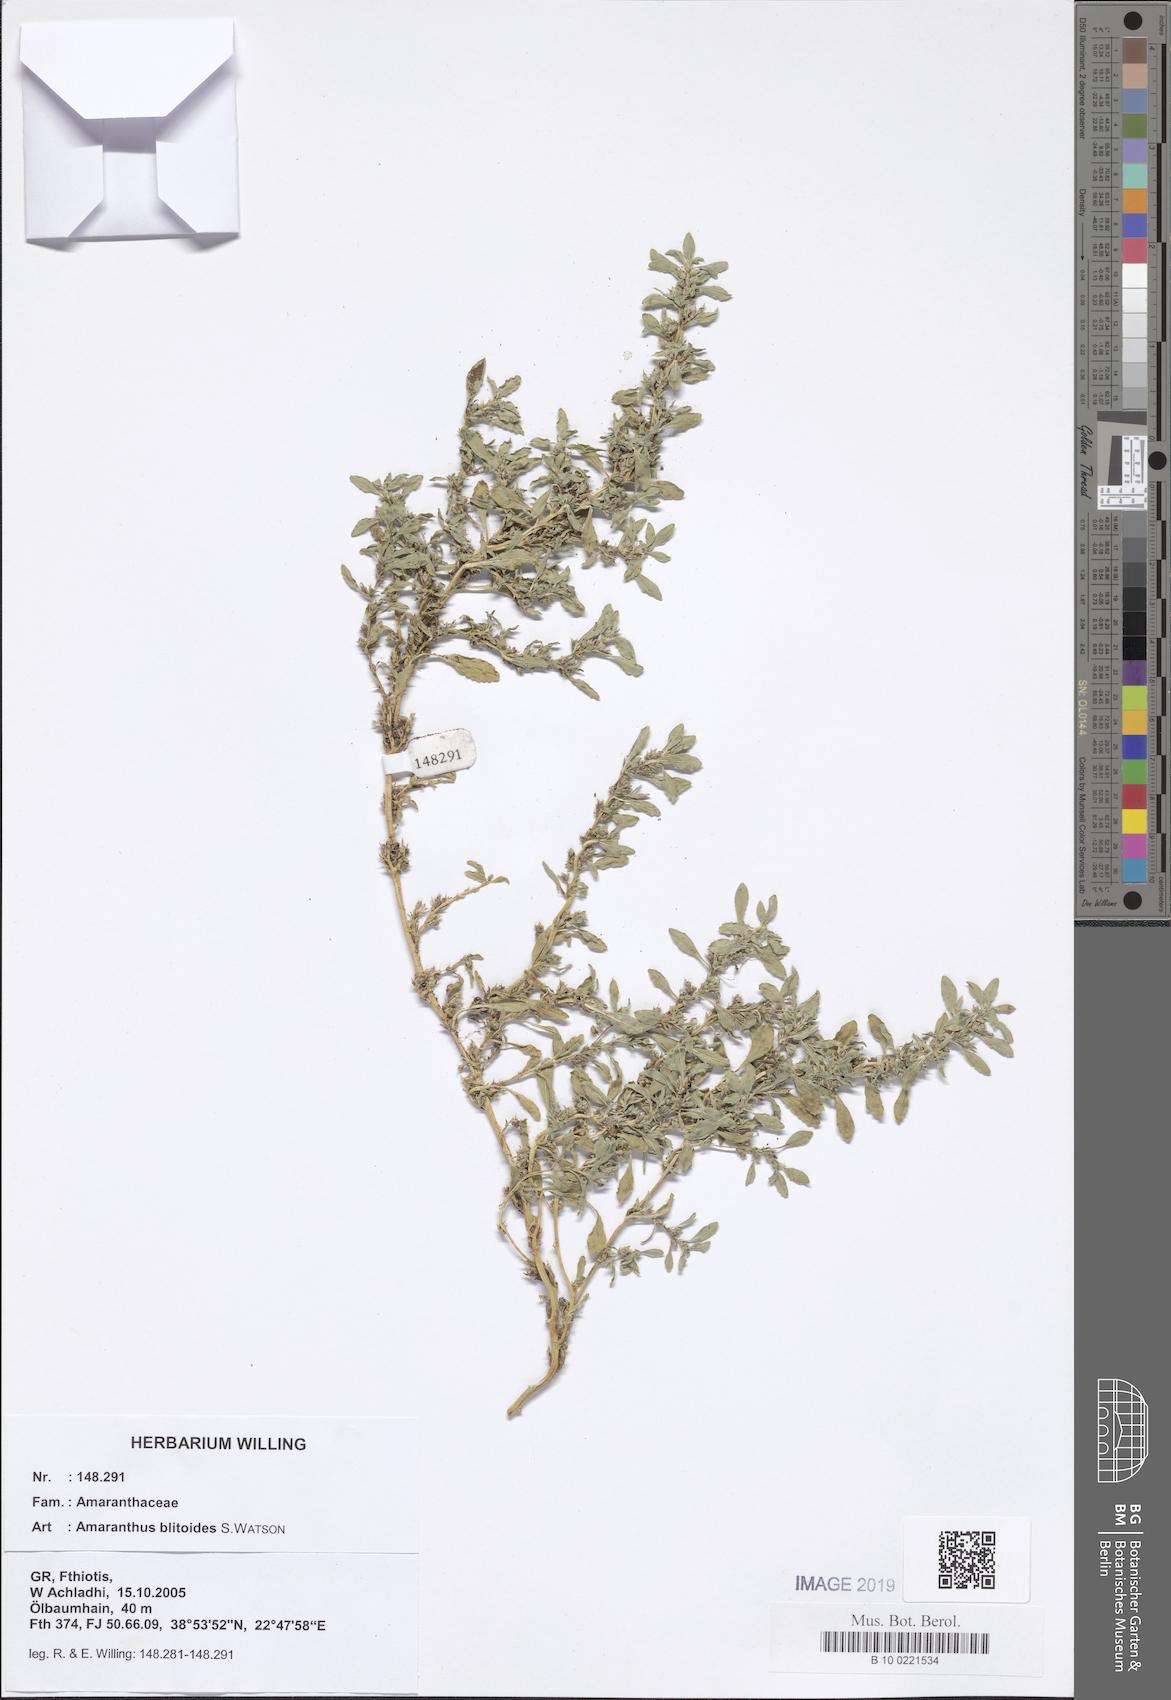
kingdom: Plantae
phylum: Tracheophyta
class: Magnoliopsida
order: Caryophyllales
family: Amaranthaceae
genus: Amaranthus
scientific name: Amaranthus blitoides
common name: Prostrate pigweed
